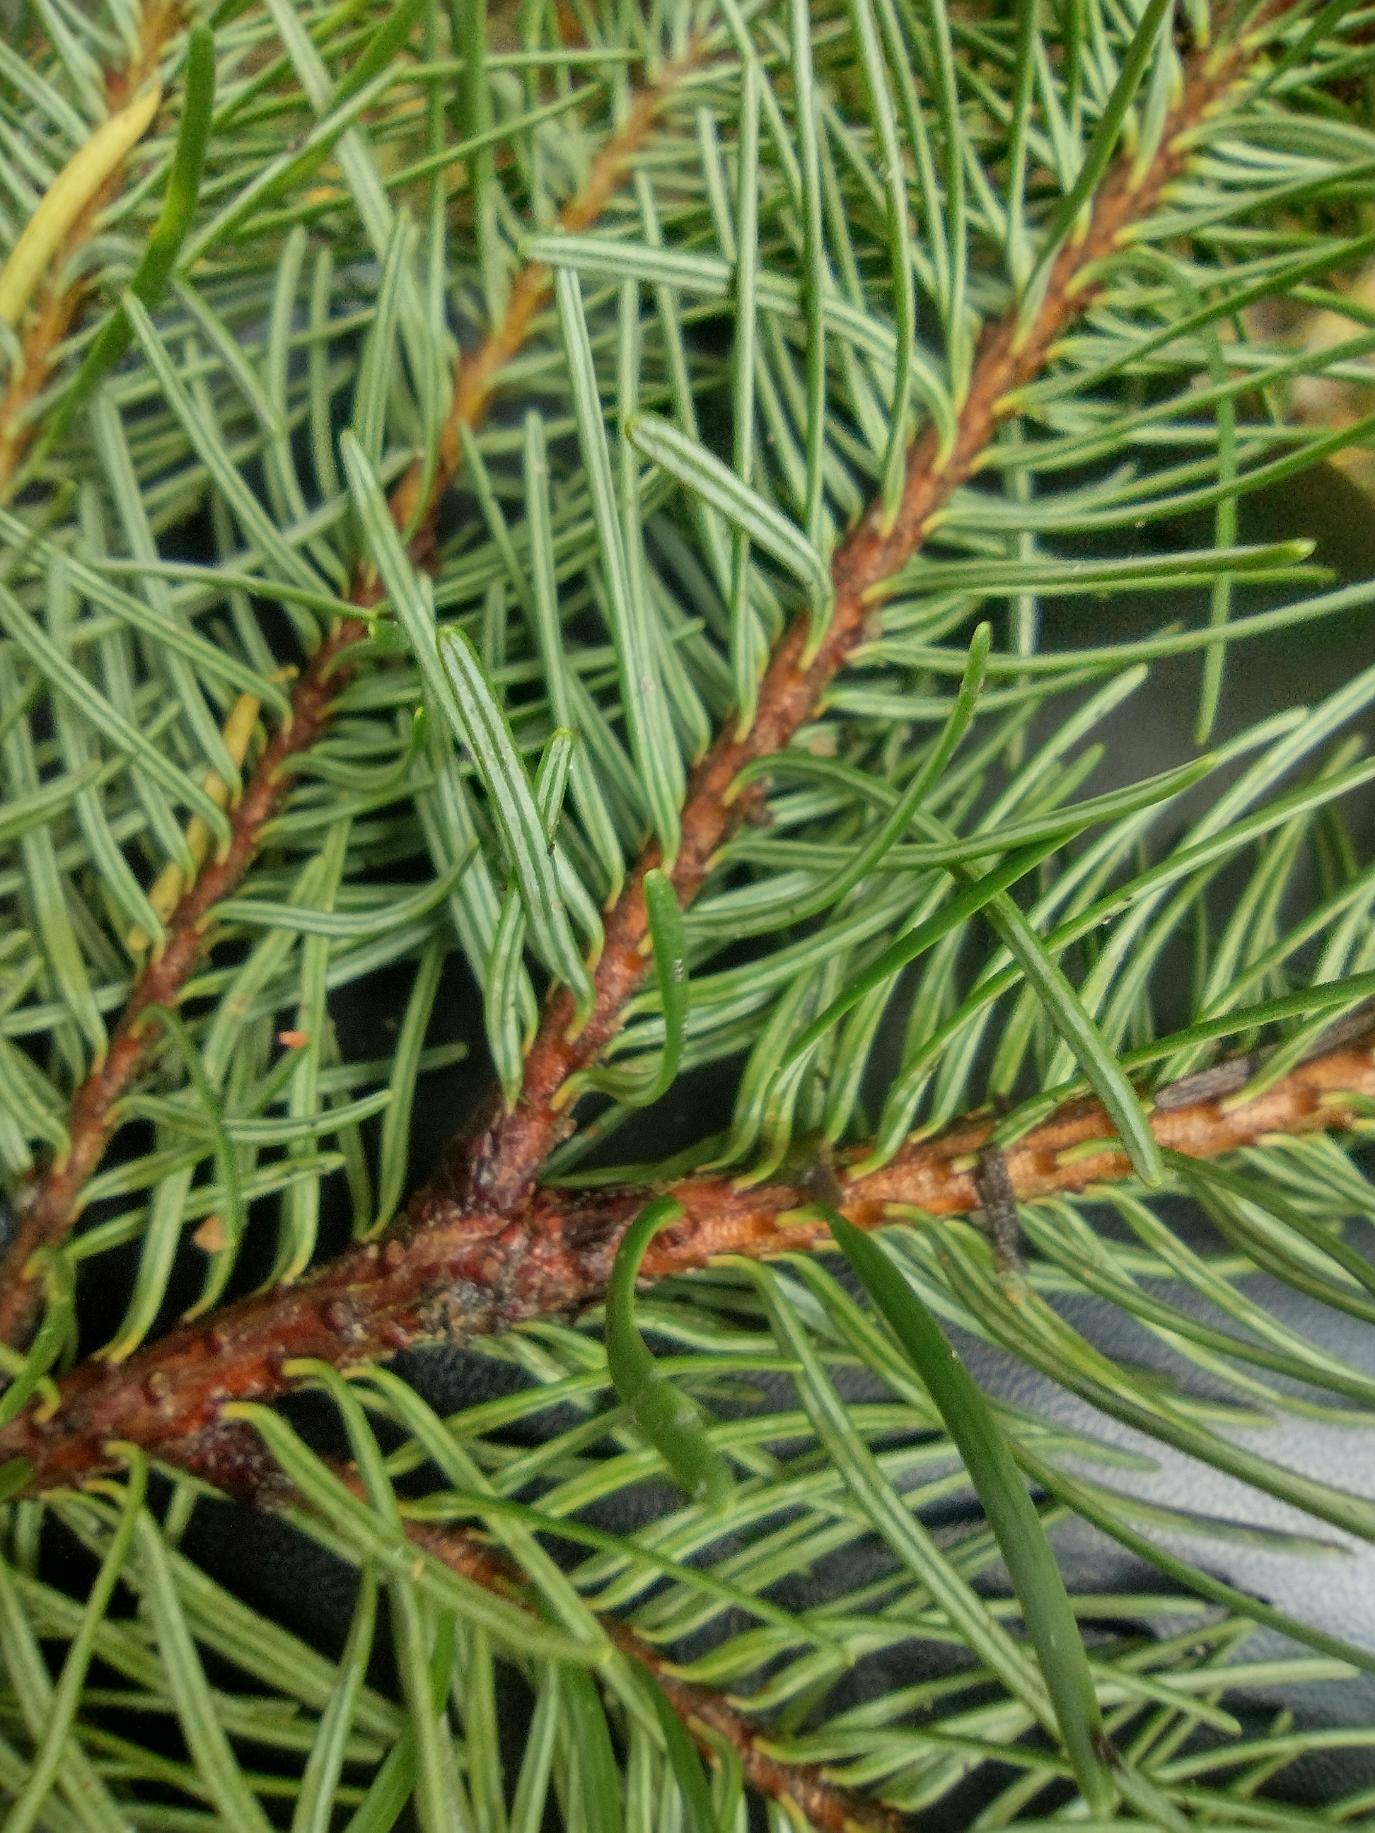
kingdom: Plantae
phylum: Tracheophyta
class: Pinopsida
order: Pinales
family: Pinaceae
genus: Pseudotsuga
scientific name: Pseudotsuga menziesii
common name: Douglasgran
